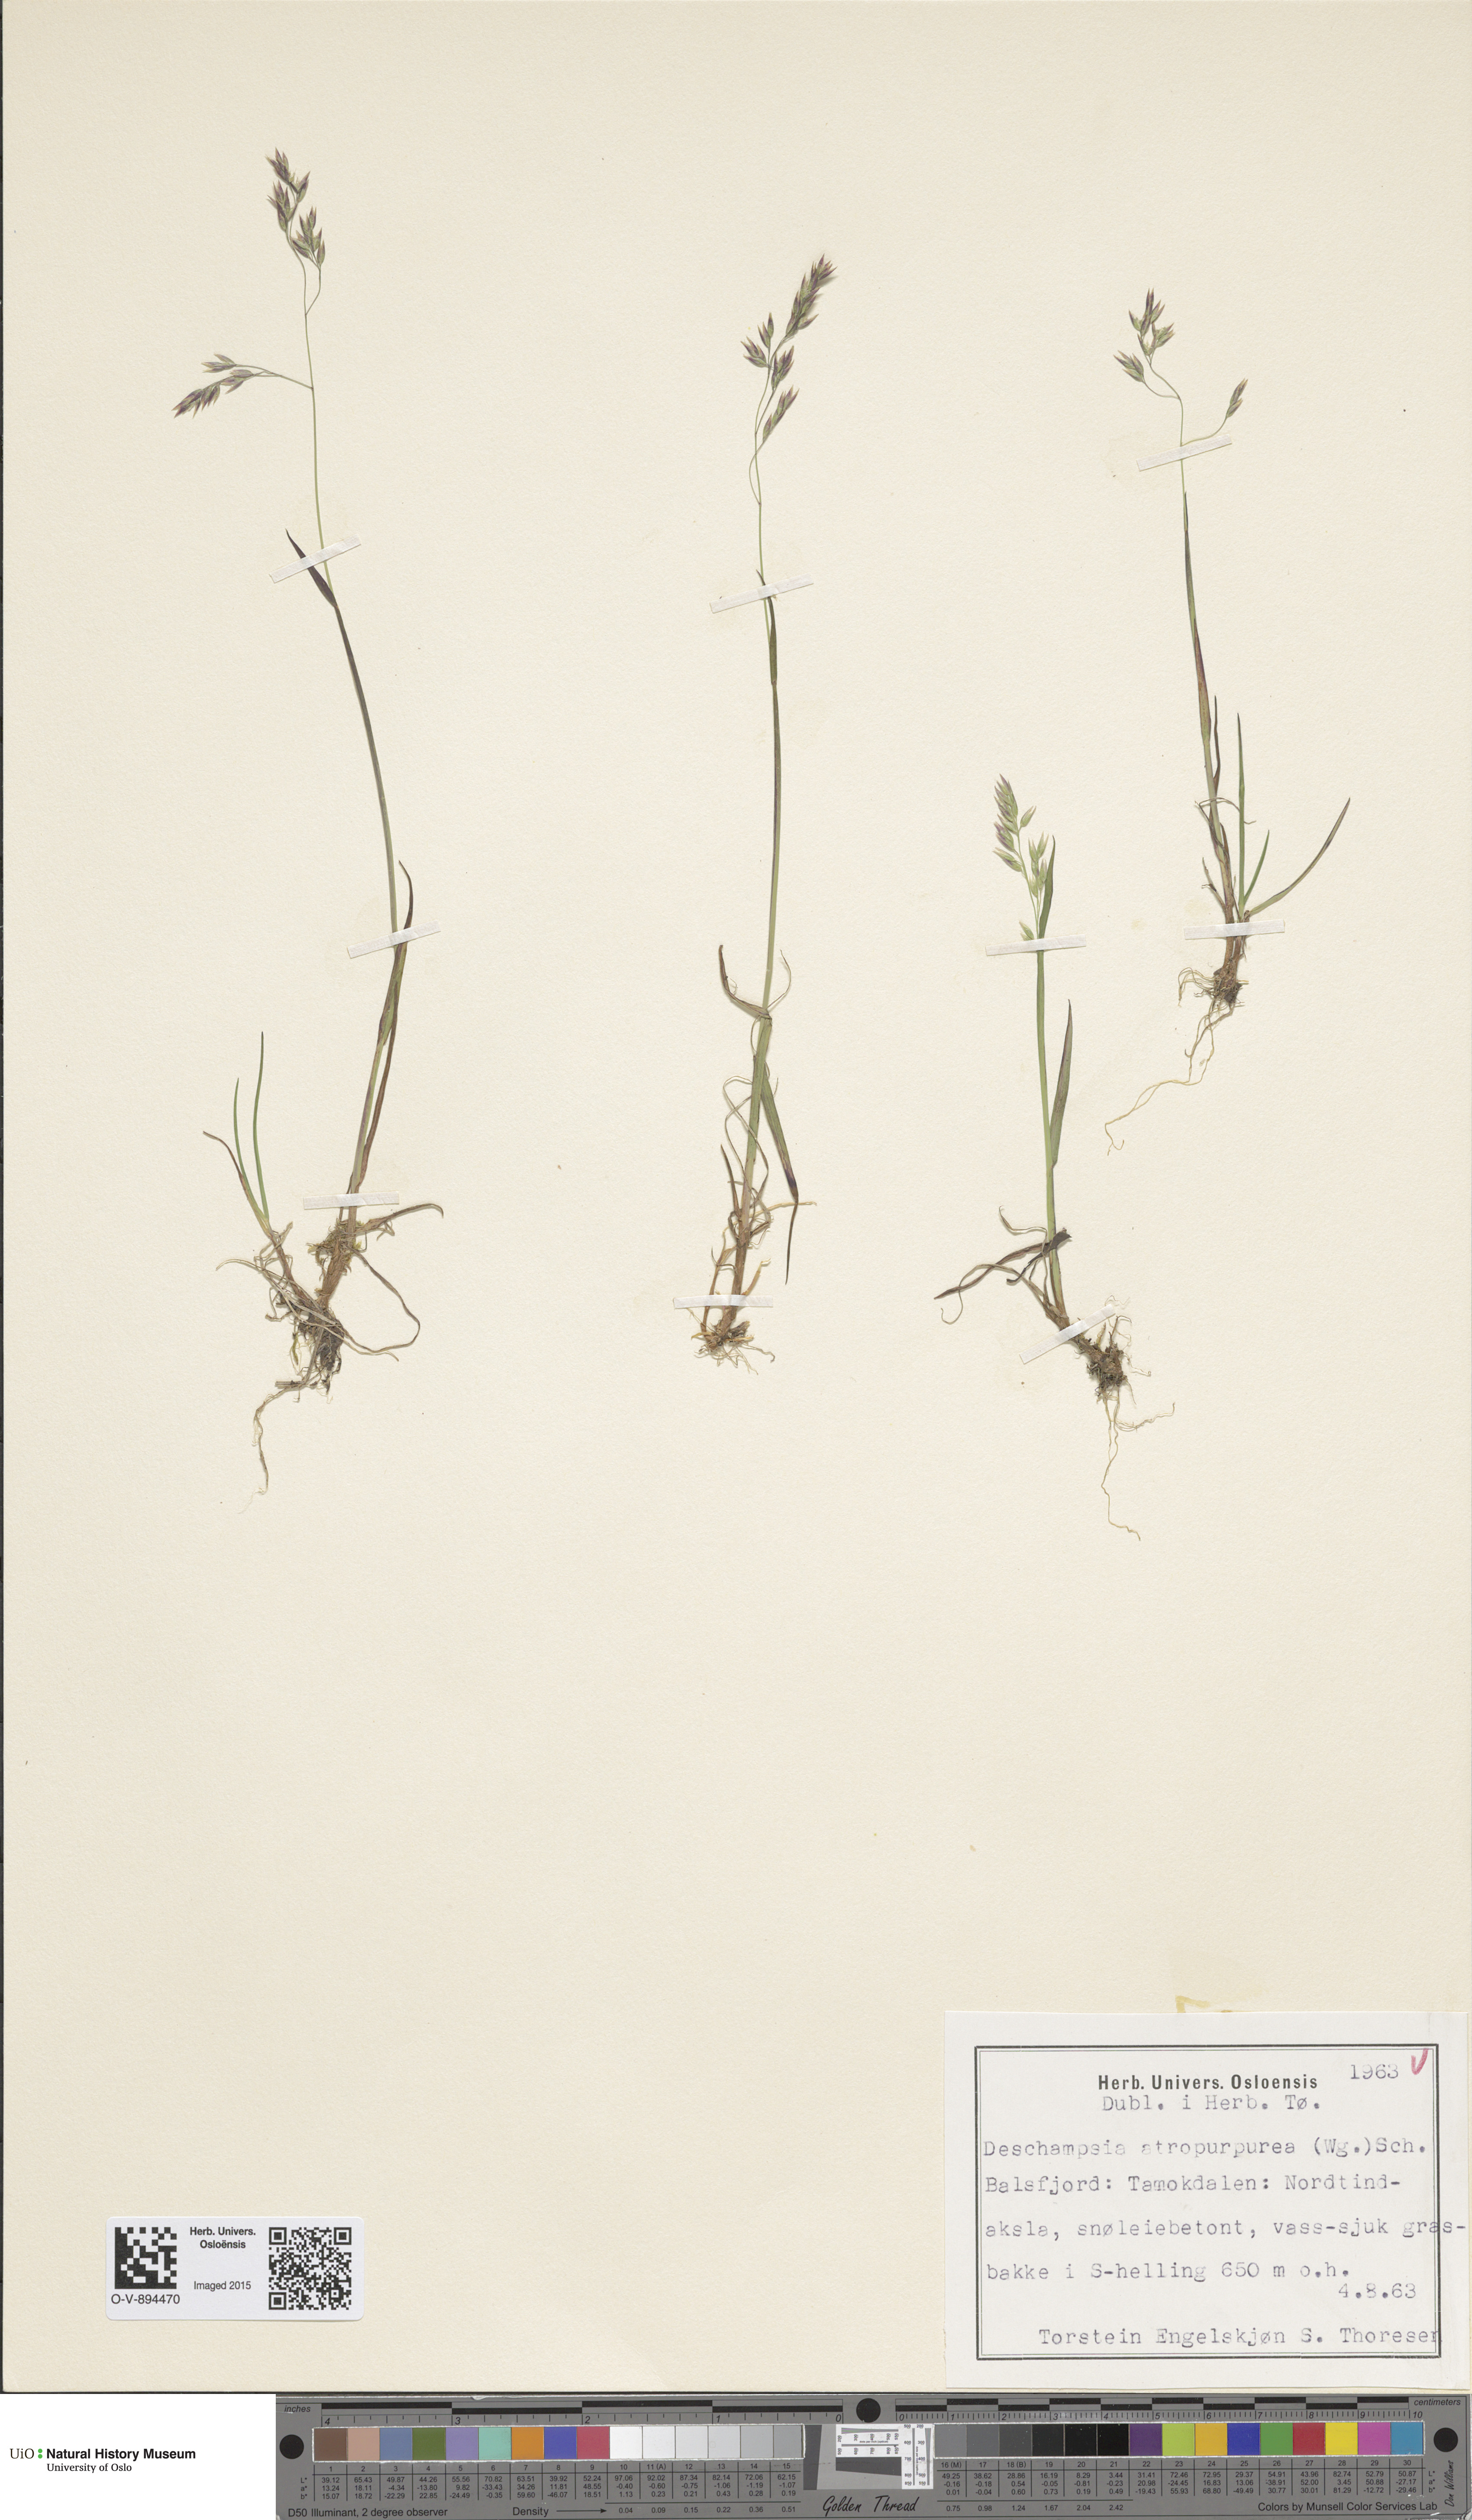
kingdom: Plantae
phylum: Tracheophyta
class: Liliopsida
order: Poales
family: Poaceae
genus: Vahlodea
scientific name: Vahlodea atropurpurea
